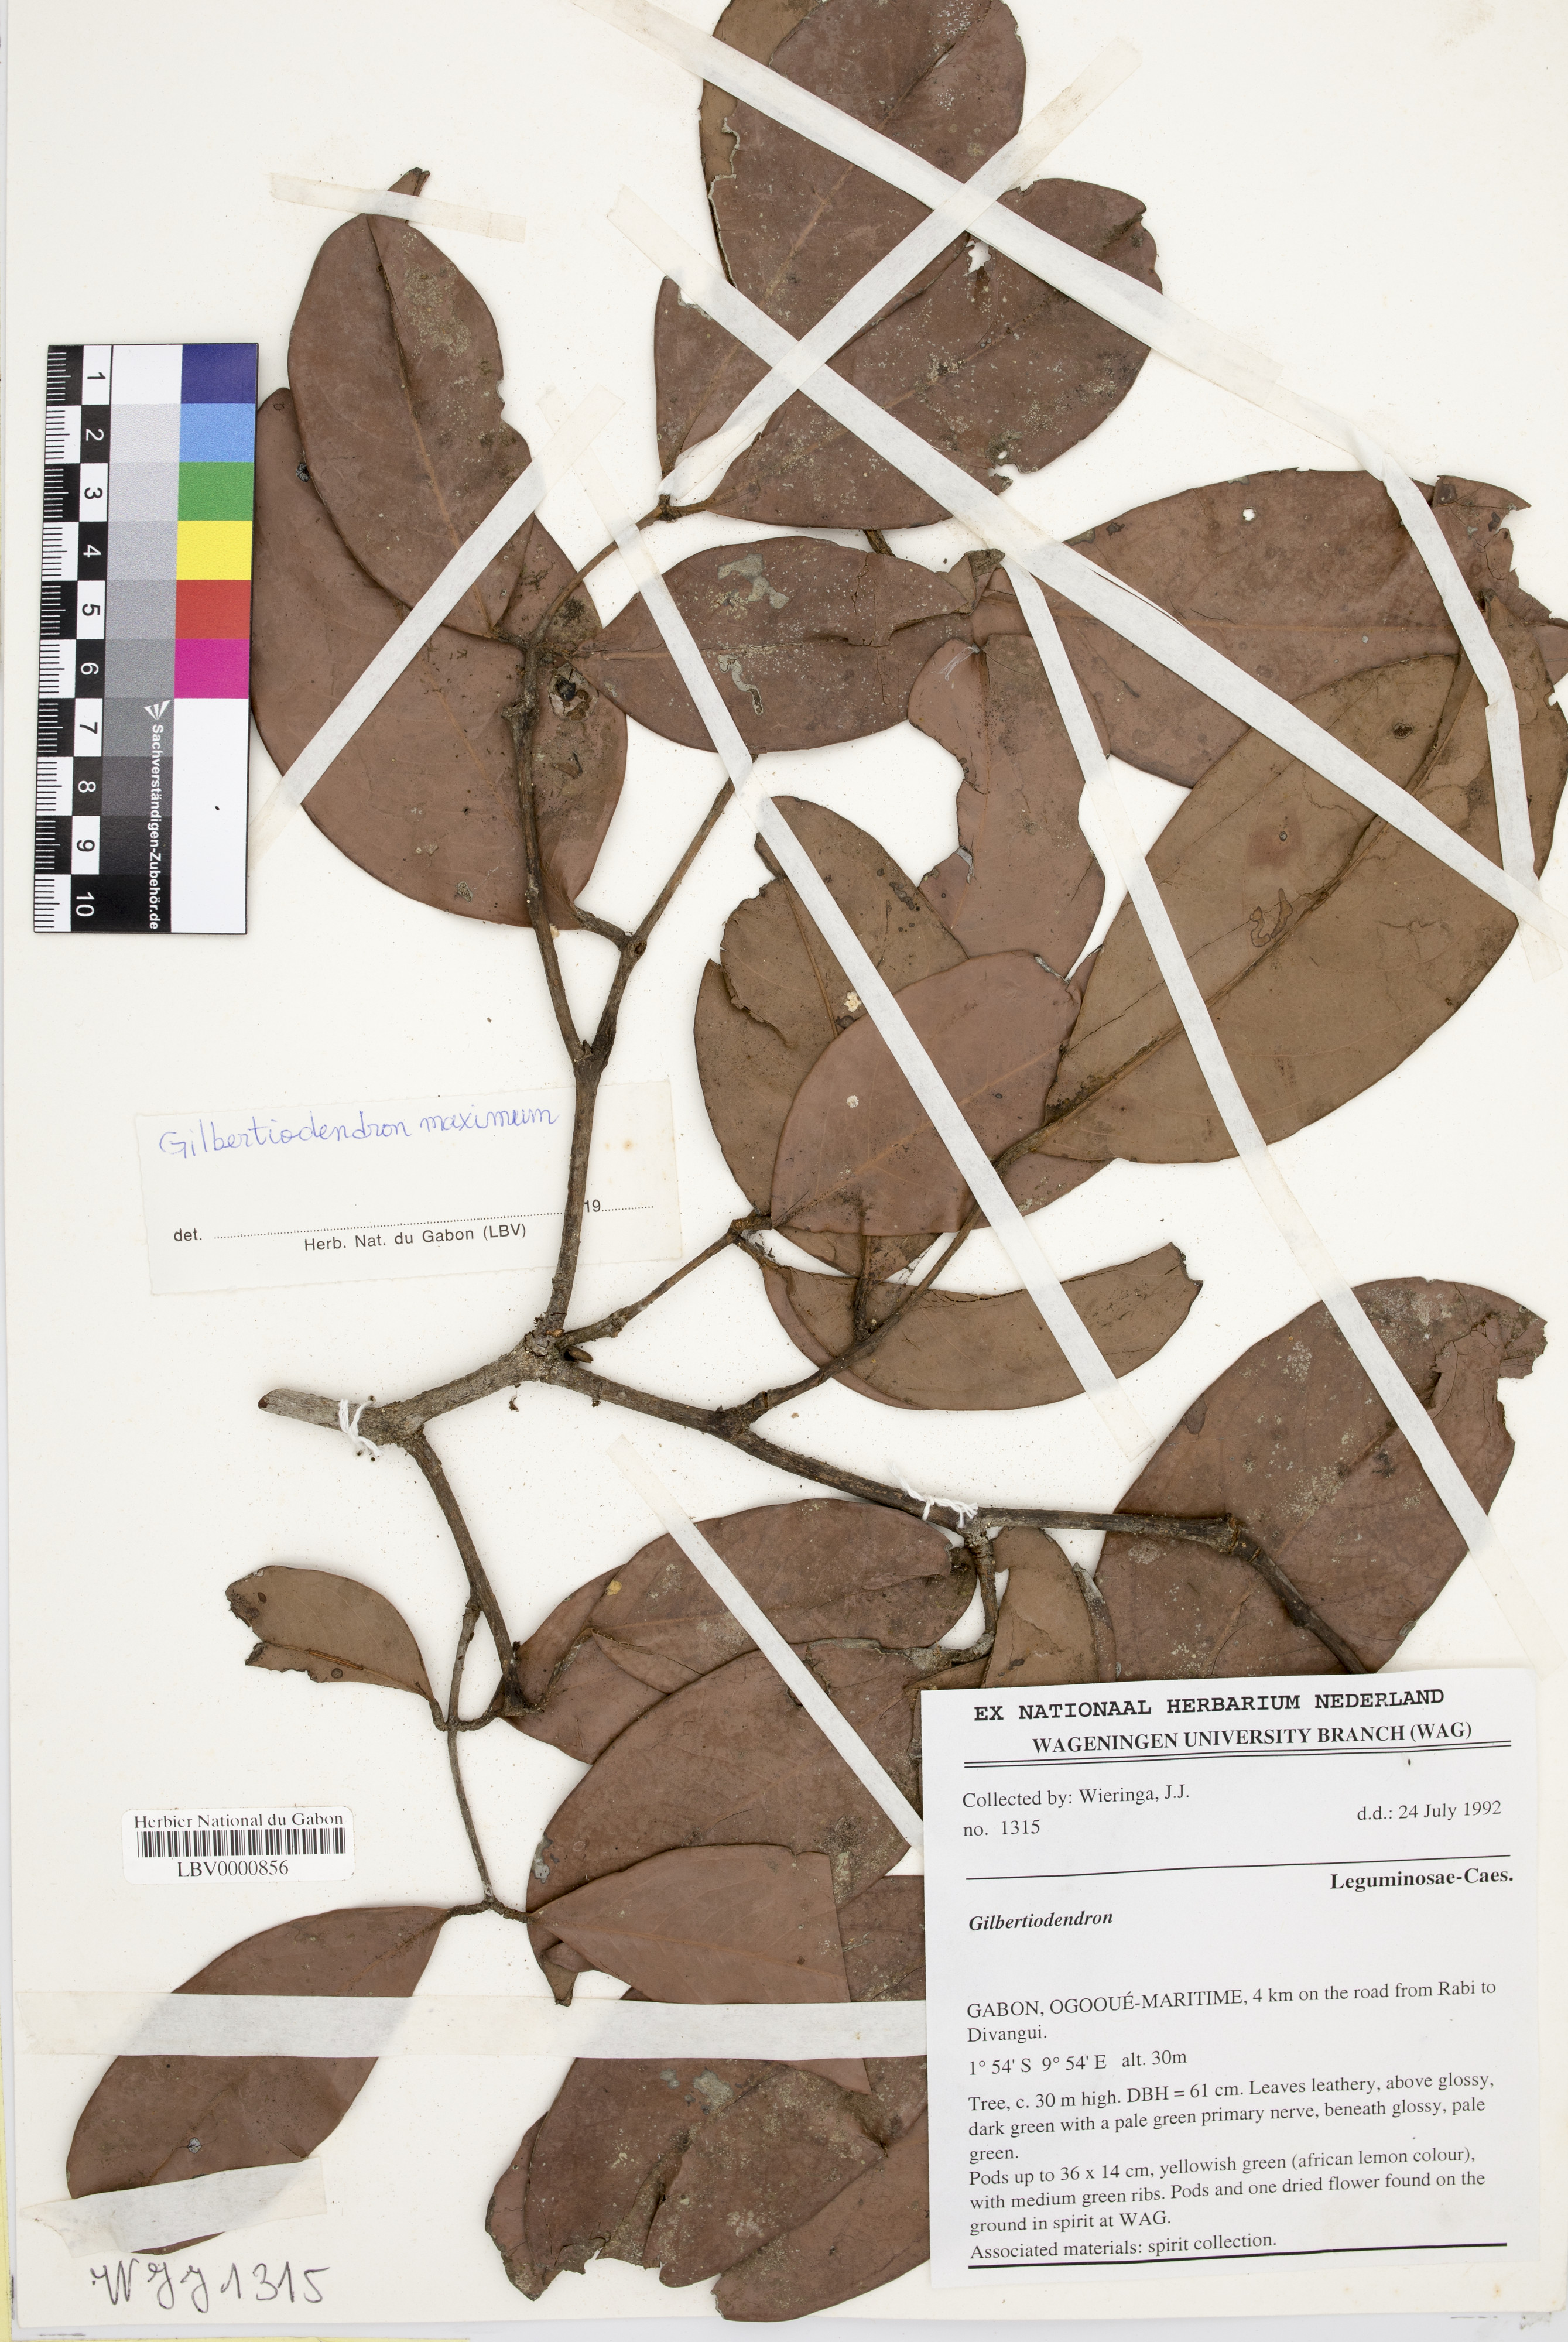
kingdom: Plantae
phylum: Tracheophyta
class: Magnoliopsida
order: Fabales
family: Fabaceae
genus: Gilbertiodendron
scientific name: Gilbertiodendron maximum
